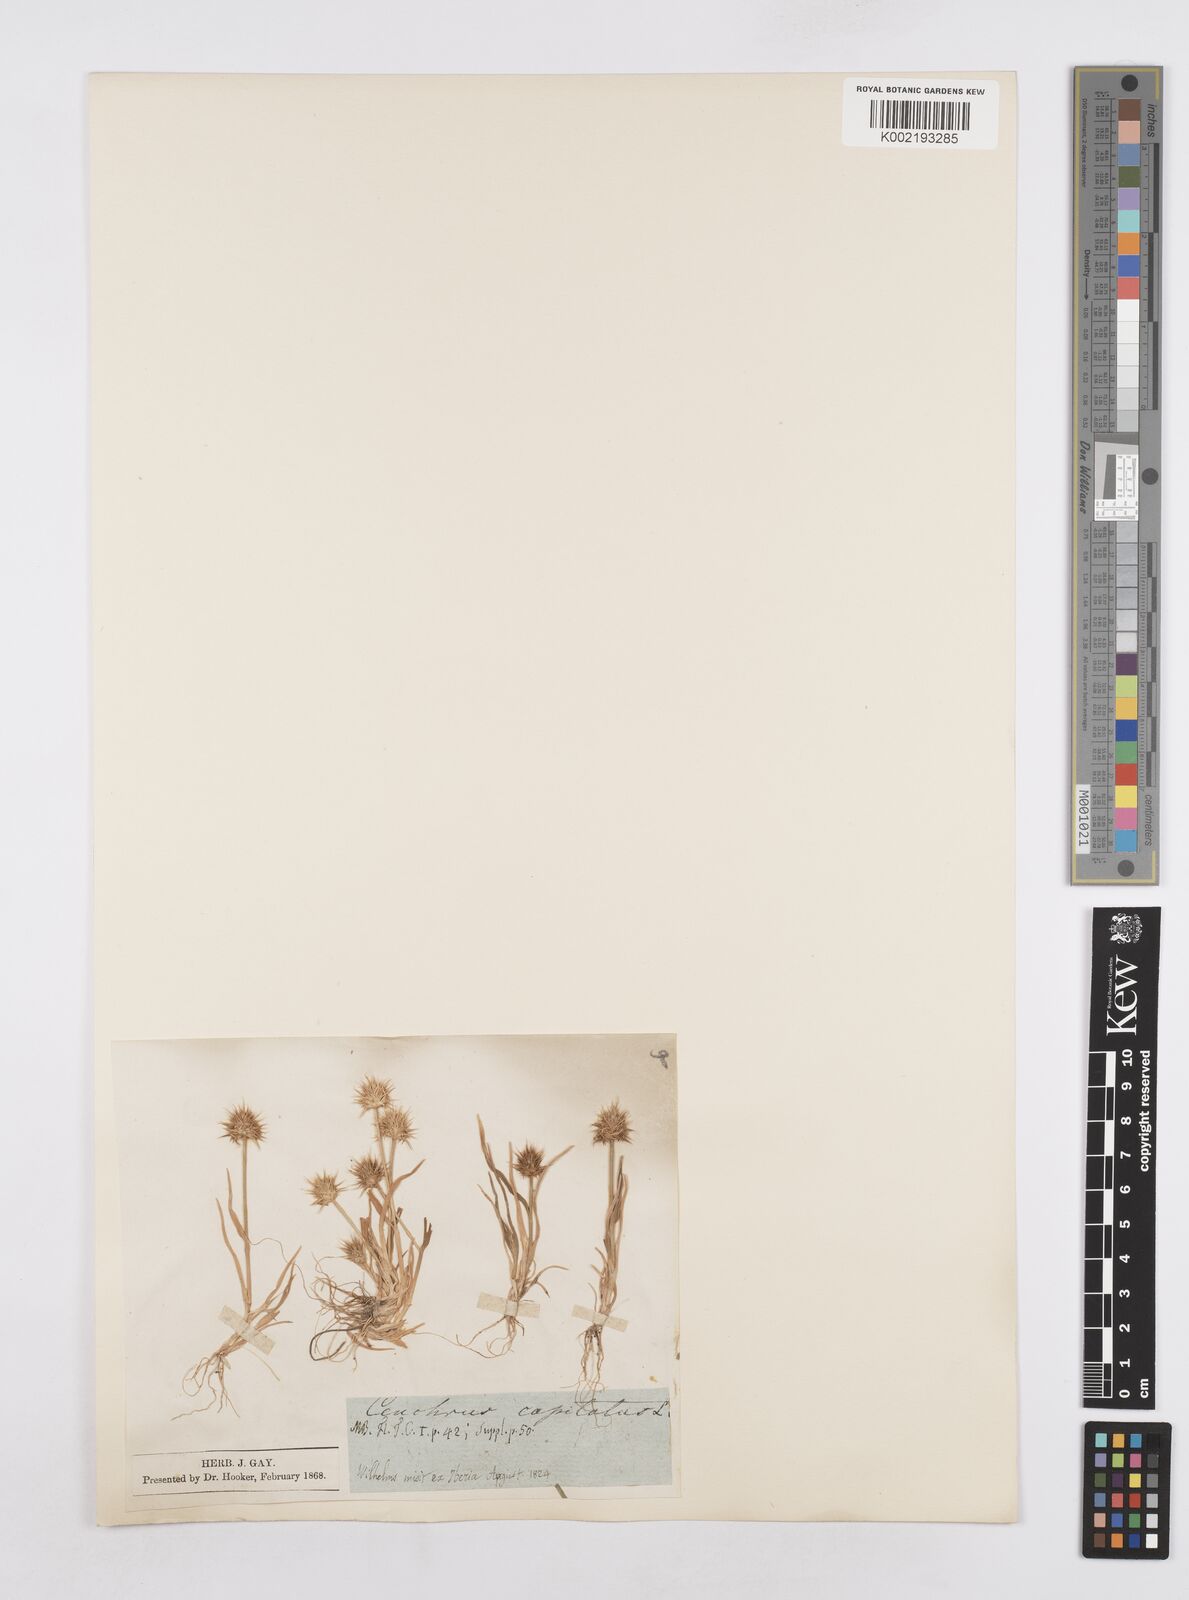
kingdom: Plantae
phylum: Tracheophyta
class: Liliopsida
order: Poales
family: Poaceae
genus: Echinaria
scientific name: Echinaria capitata
